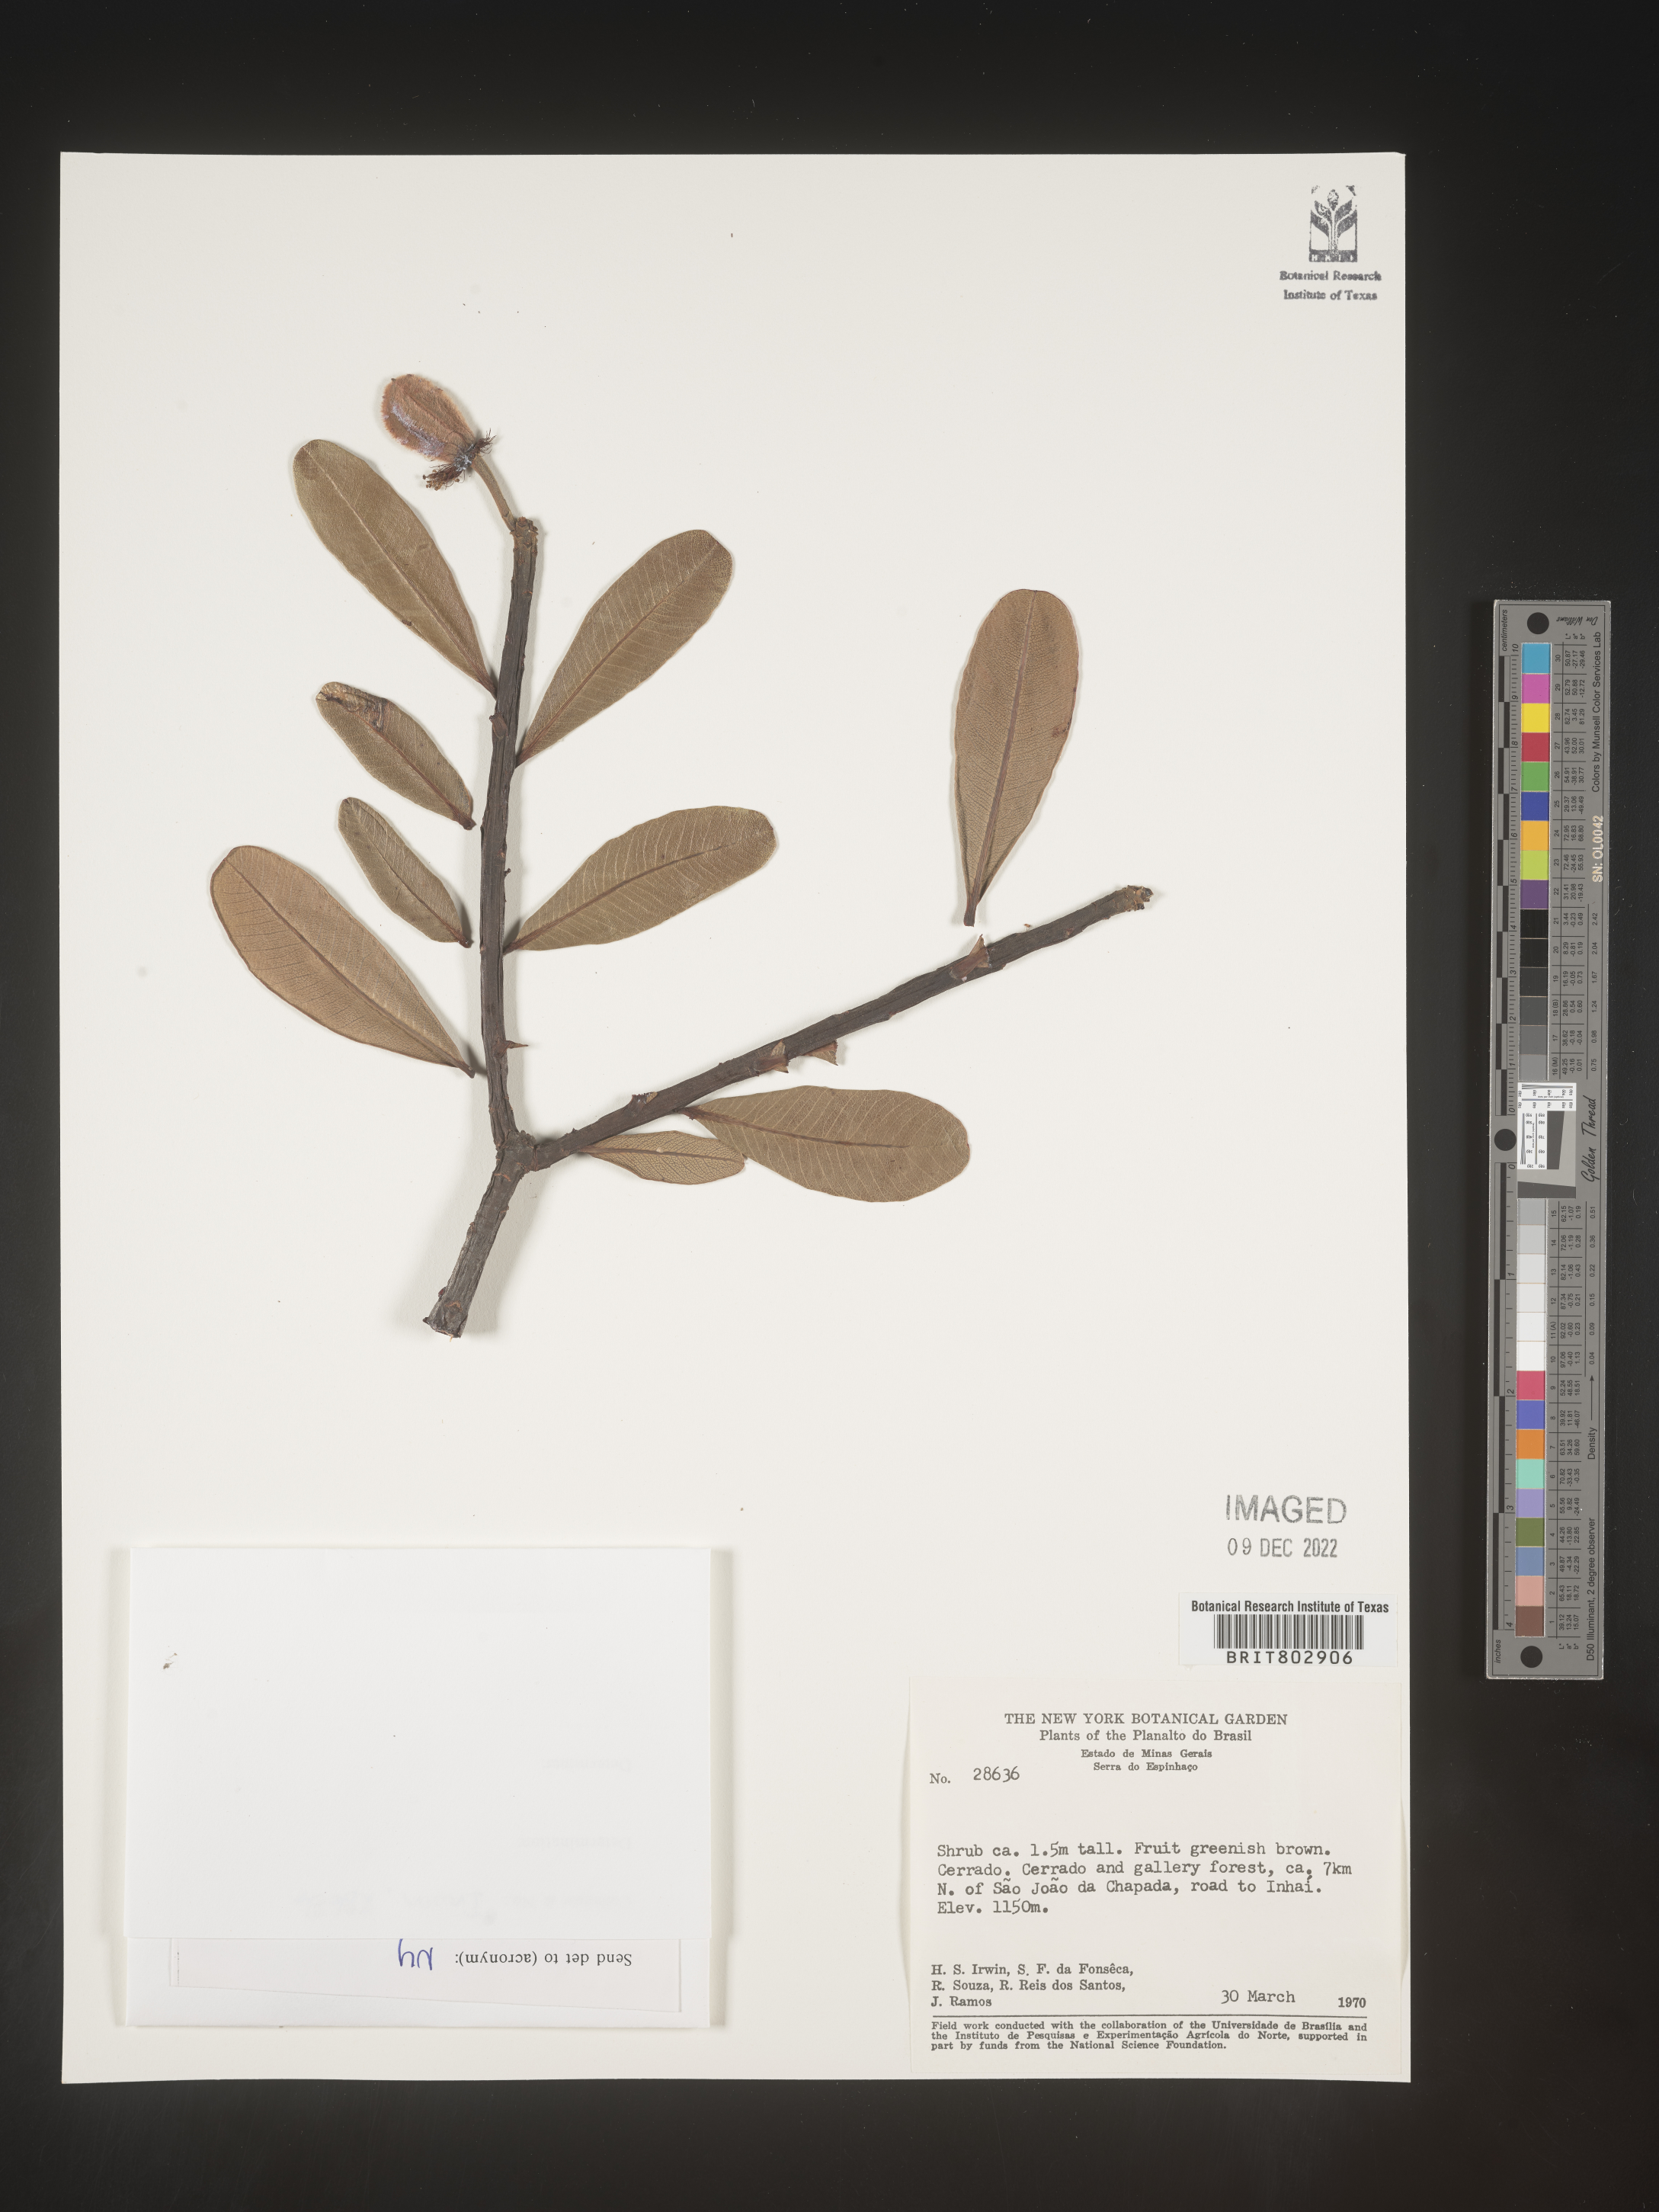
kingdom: Plantae
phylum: Tracheophyta
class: Magnoliopsida
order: Malpighiales
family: Calophyllaceae
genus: Kielmeyera
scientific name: Kielmeyera
